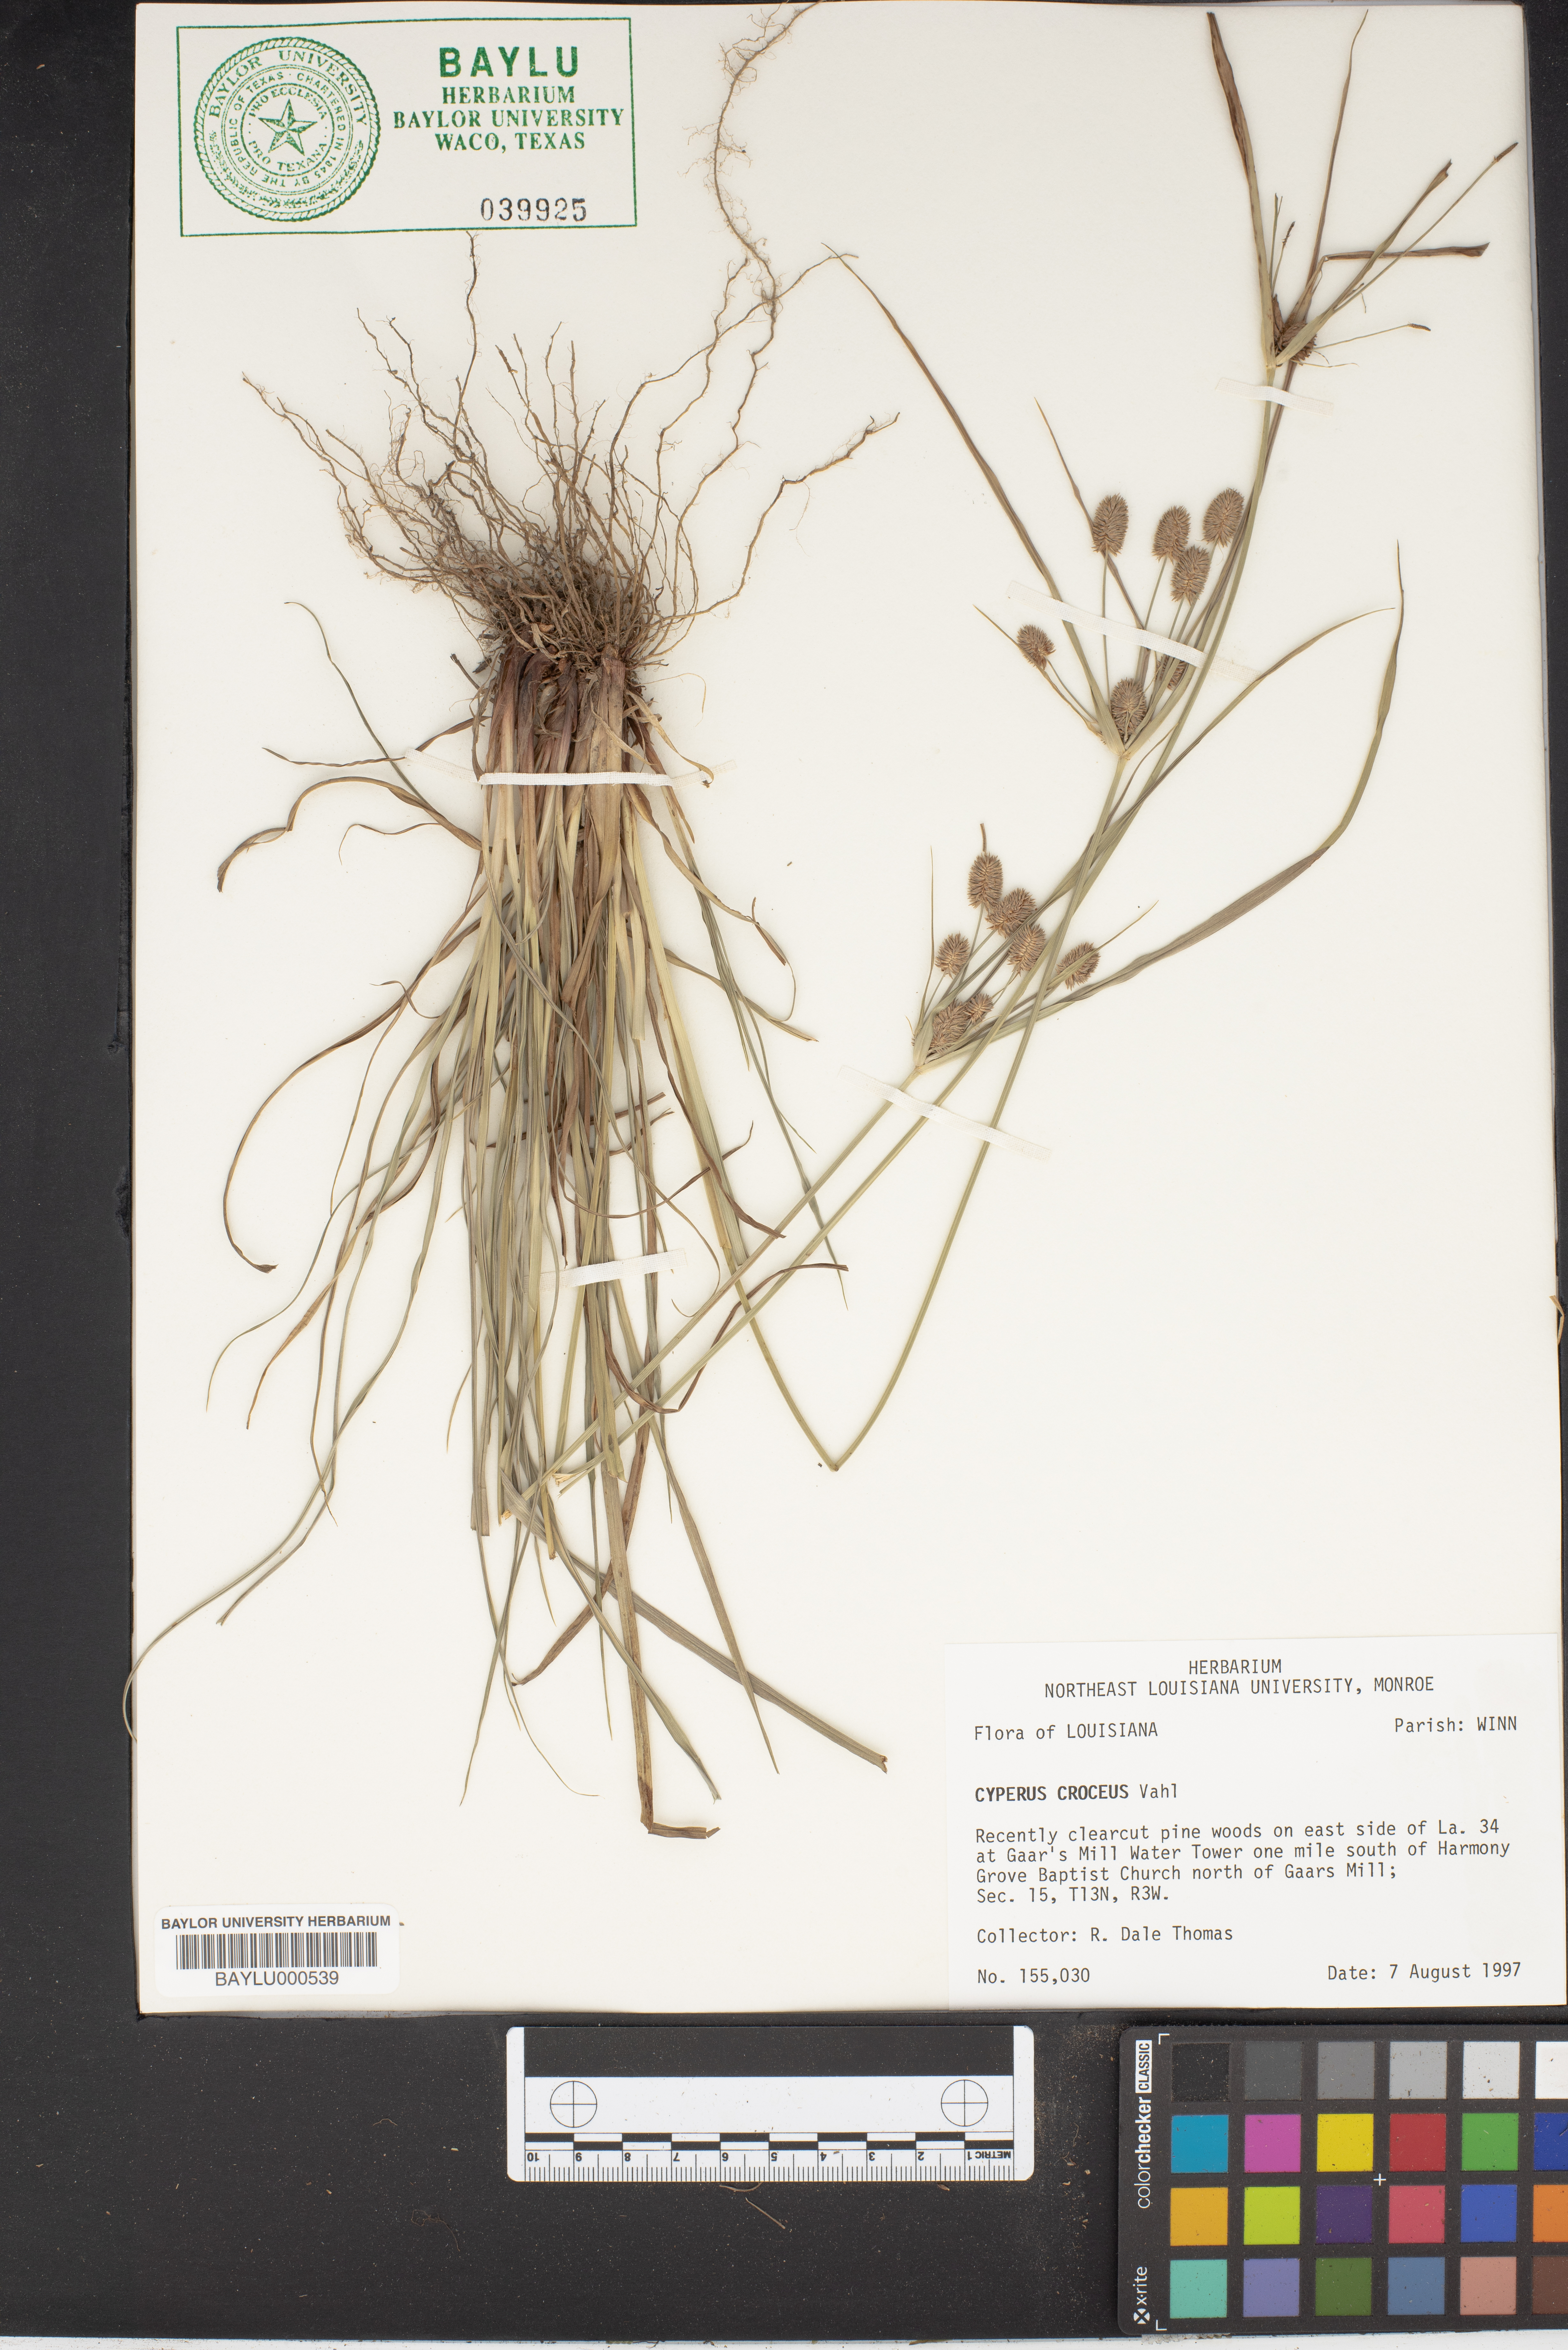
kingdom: Plantae
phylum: Tracheophyta
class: Liliopsida
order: Poales
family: Cyperaceae
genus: Cyperus
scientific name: Cyperus croceus
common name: Baldwin's flatsedge
